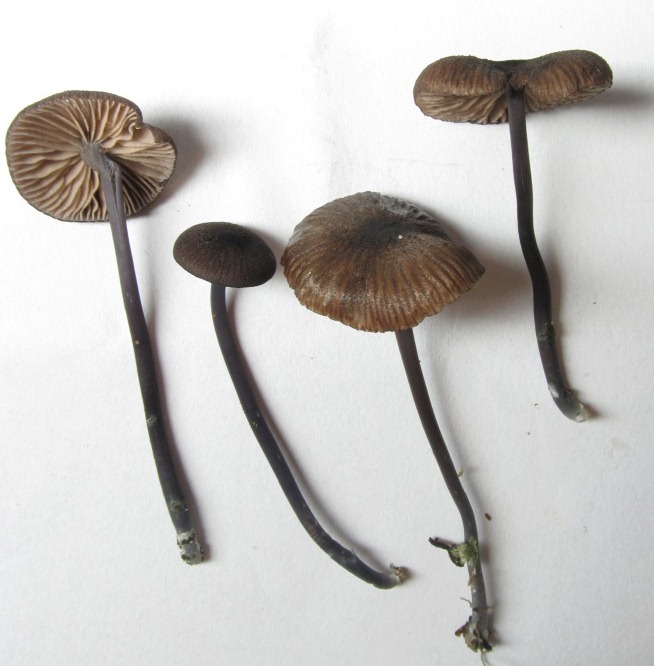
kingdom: Fungi
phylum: Basidiomycota
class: Agaricomycetes
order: Agaricales
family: Entolomataceae
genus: Entoloma
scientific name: Entoloma poliopus
